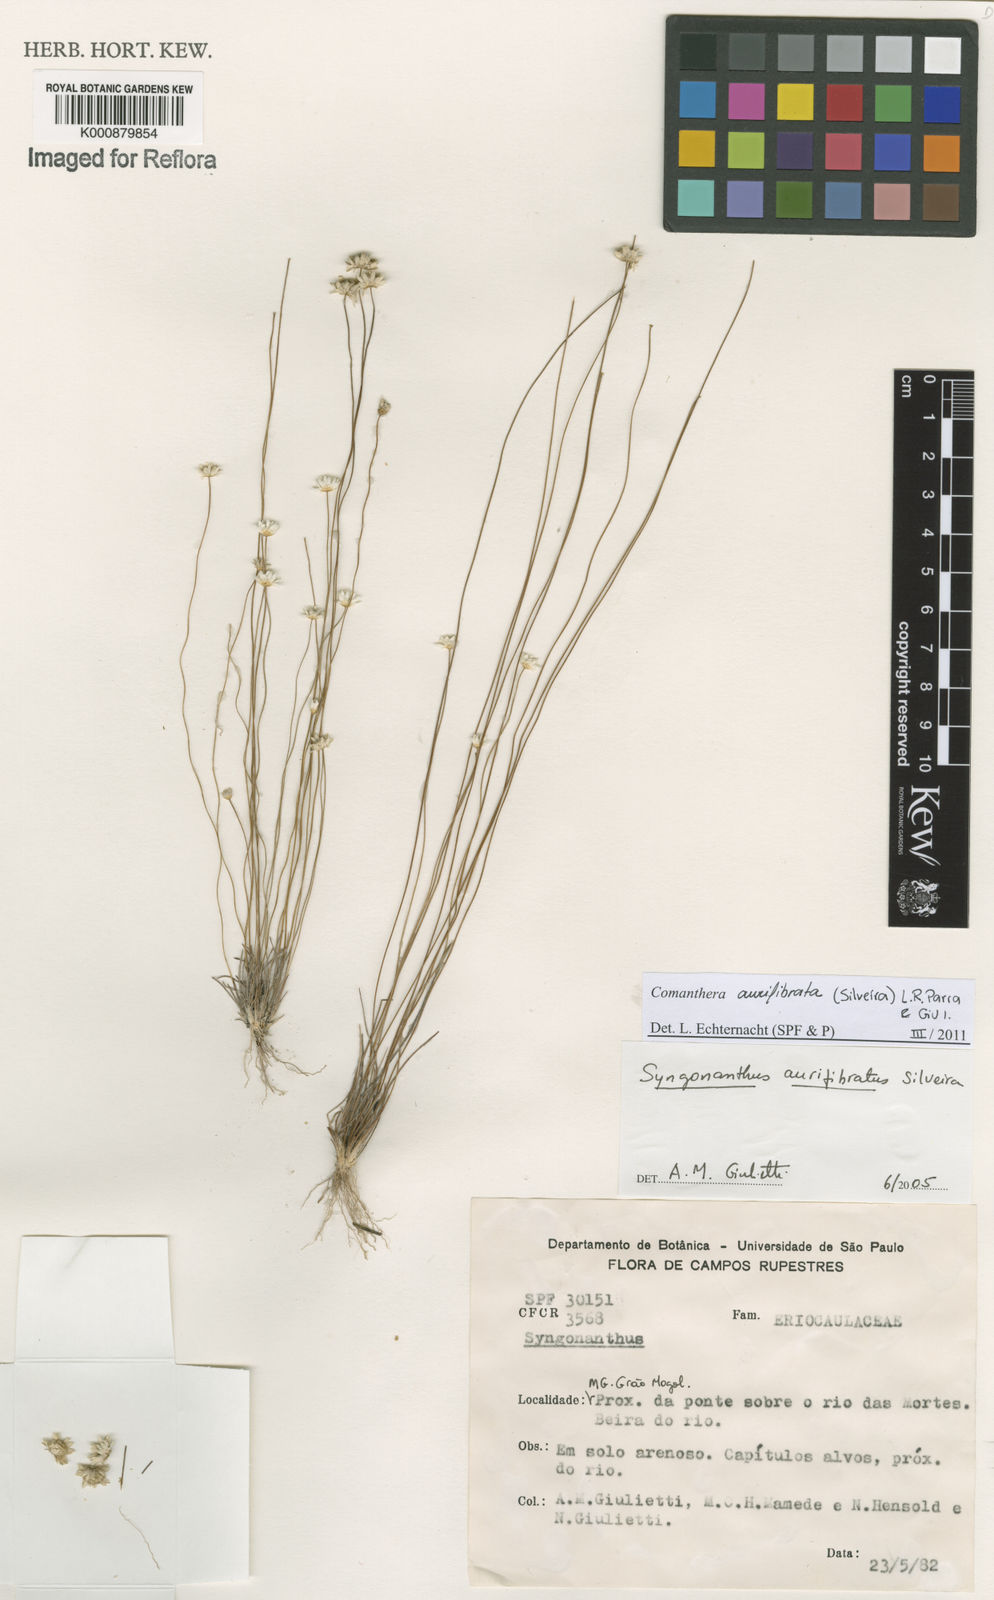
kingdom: Plantae
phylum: Tracheophyta
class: Liliopsida
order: Poales
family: Eriocaulaceae
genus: Comanthera
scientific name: Comanthera aurifibrata
